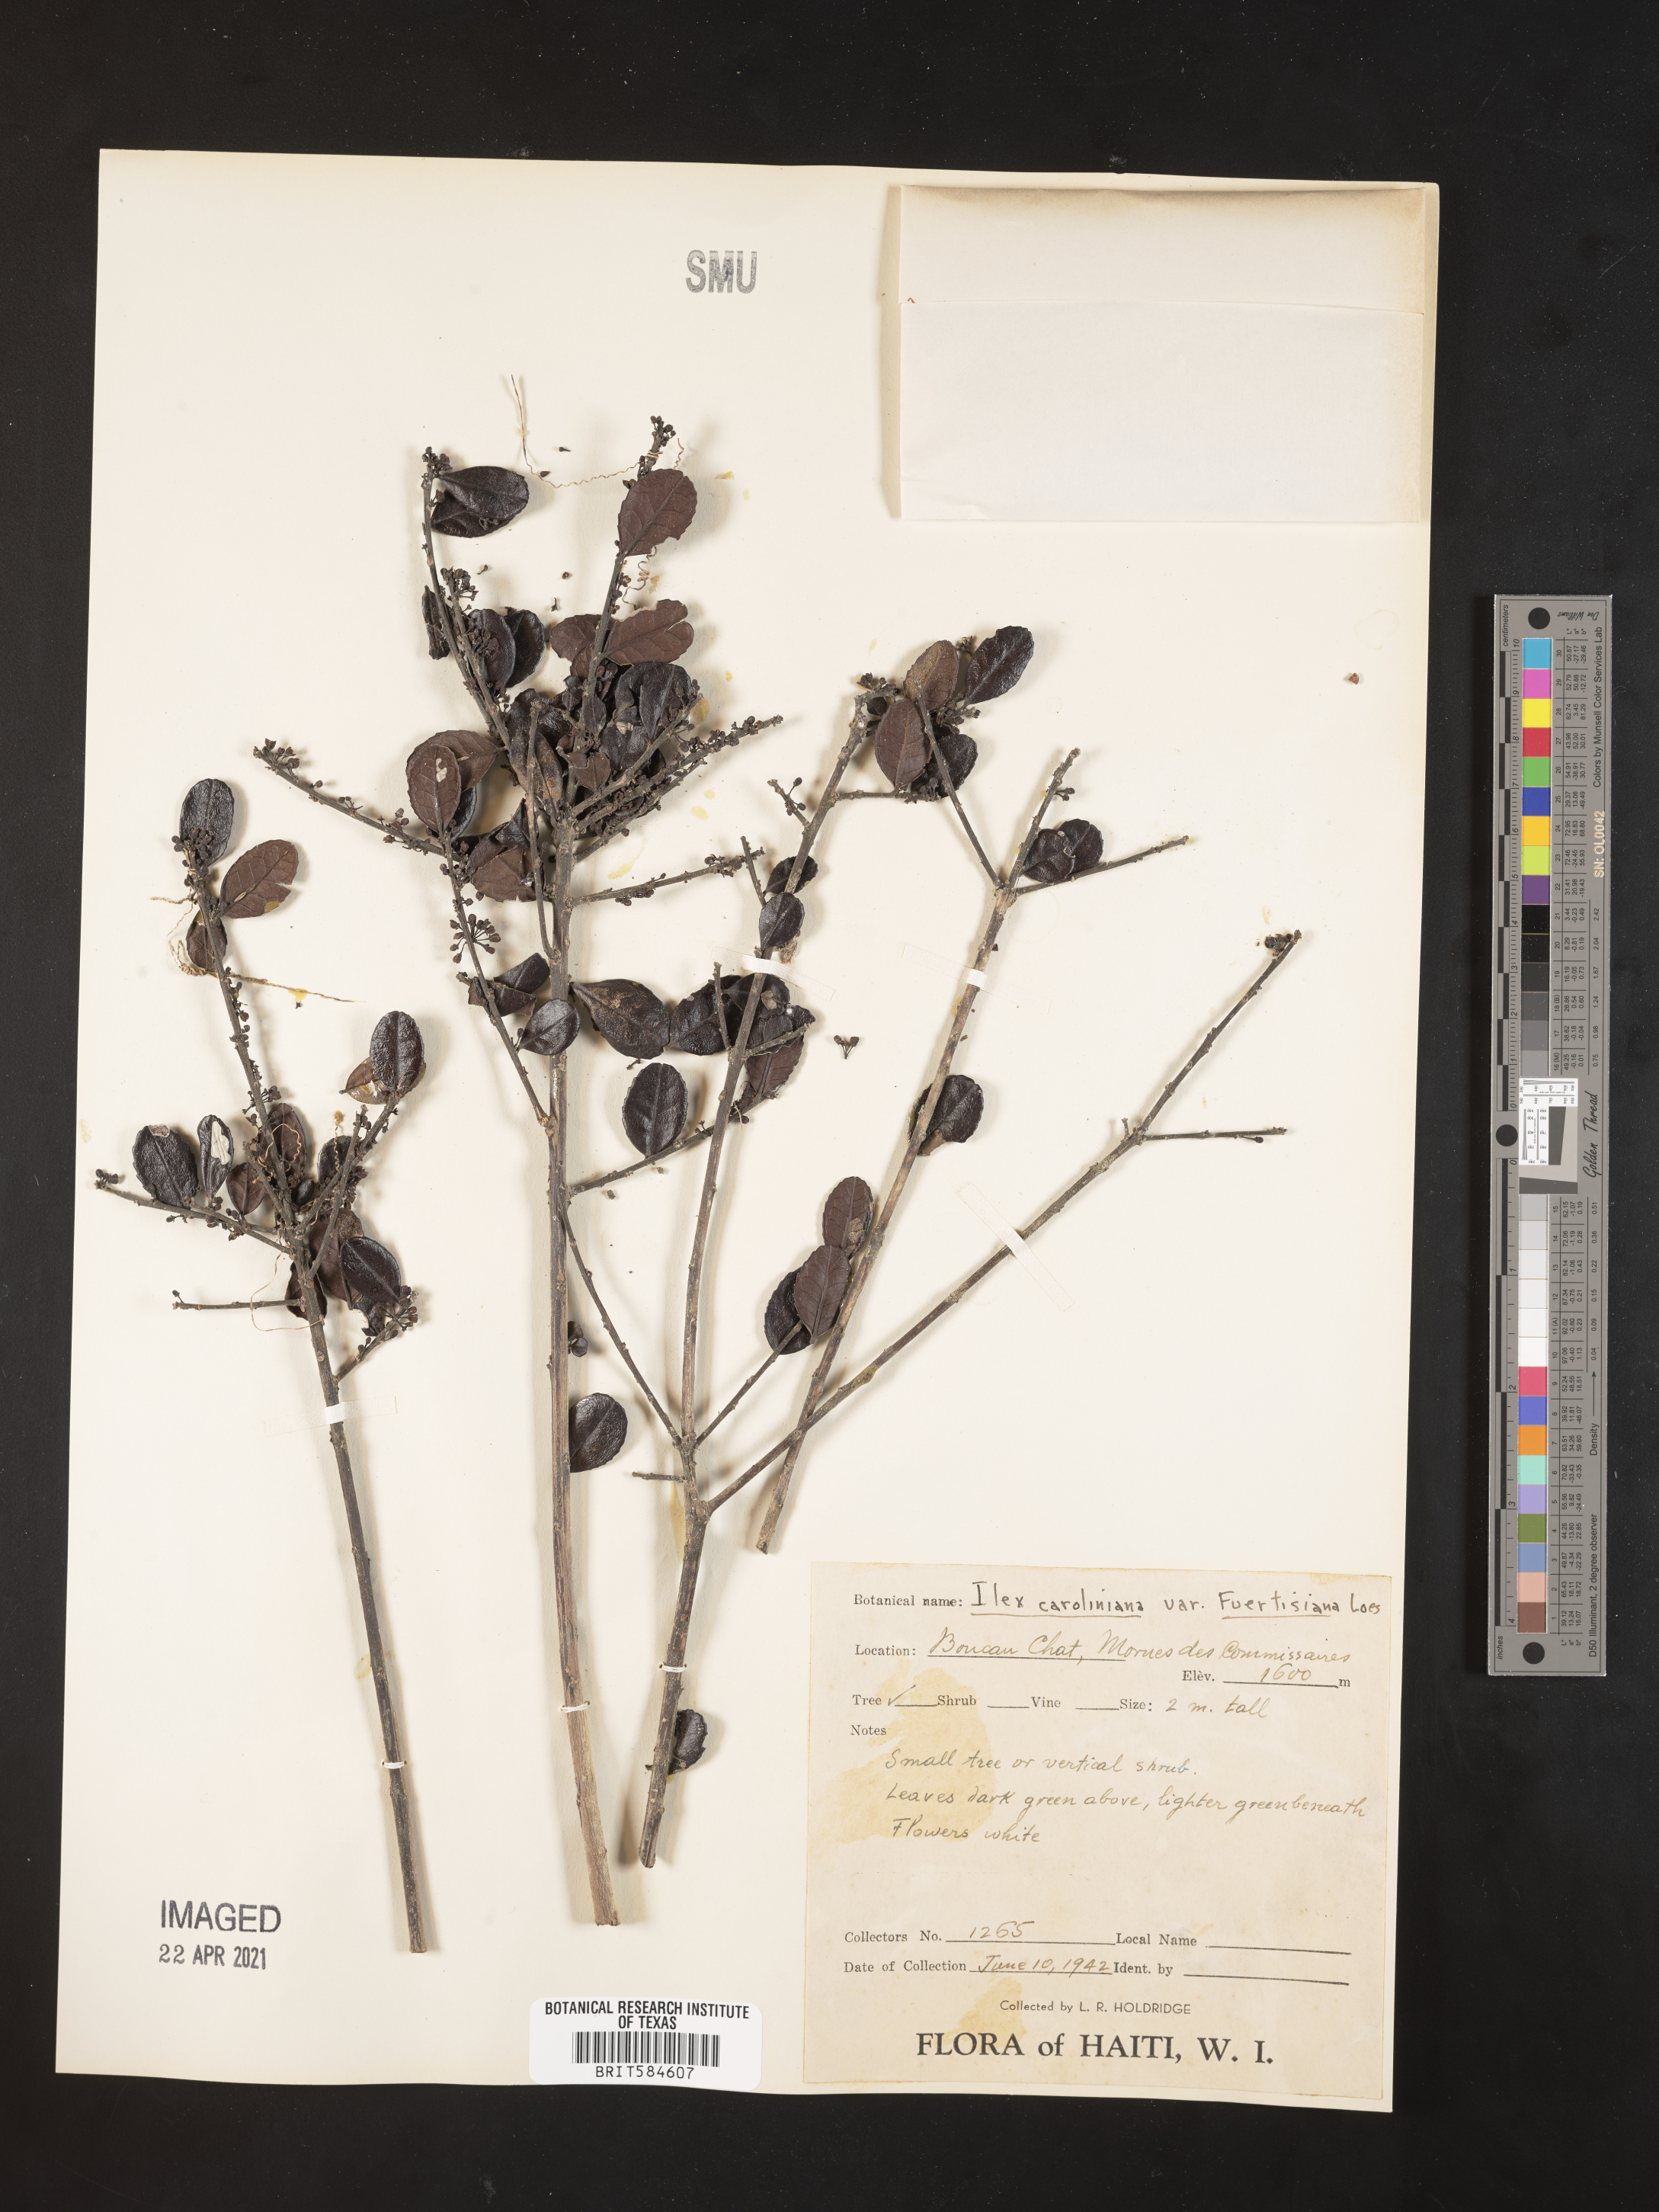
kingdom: Plantae
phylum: Tracheophyta
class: Magnoliopsida
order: Aquifoliales
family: Aquifoliaceae
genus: Ilex
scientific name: Ilex fuertensiana
